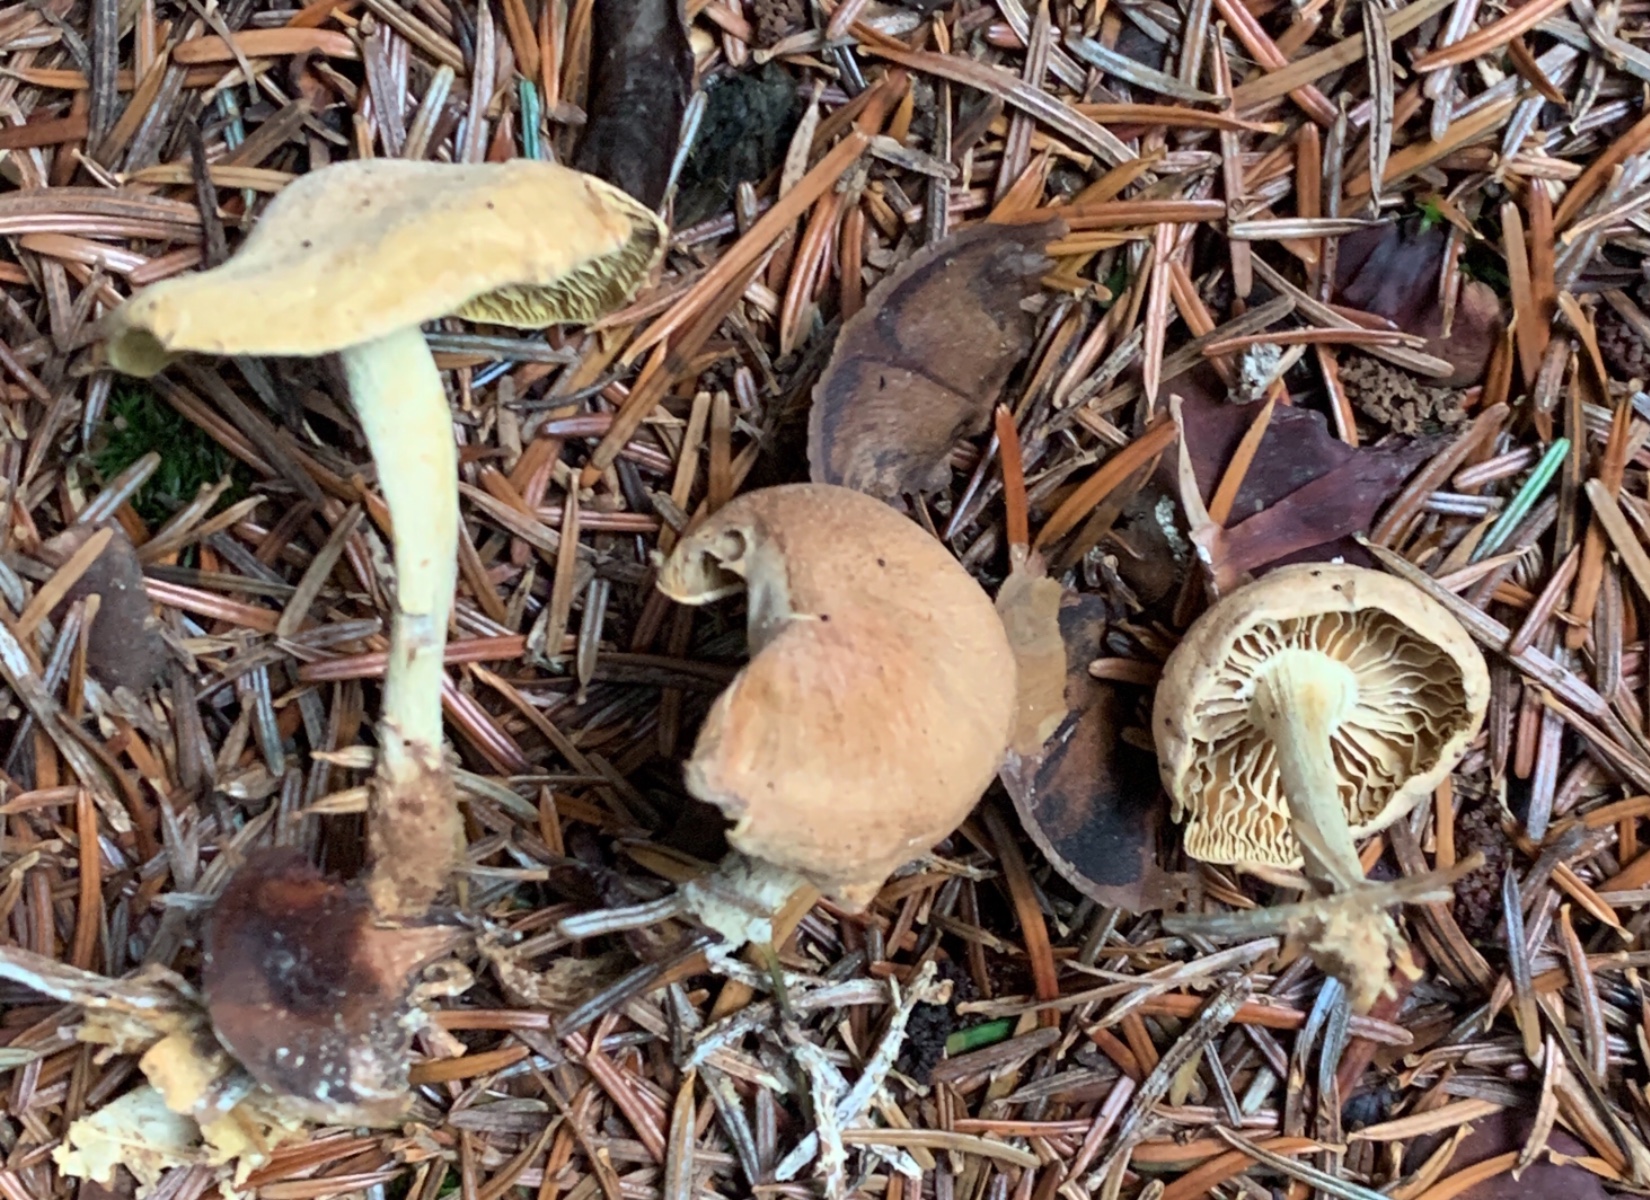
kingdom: Fungi
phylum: Basidiomycota
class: Agaricomycetes
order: Agaricales
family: Omphalotaceae
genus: Collybiopsis
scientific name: Collybiopsis peronata
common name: bestøvlet fladhat
